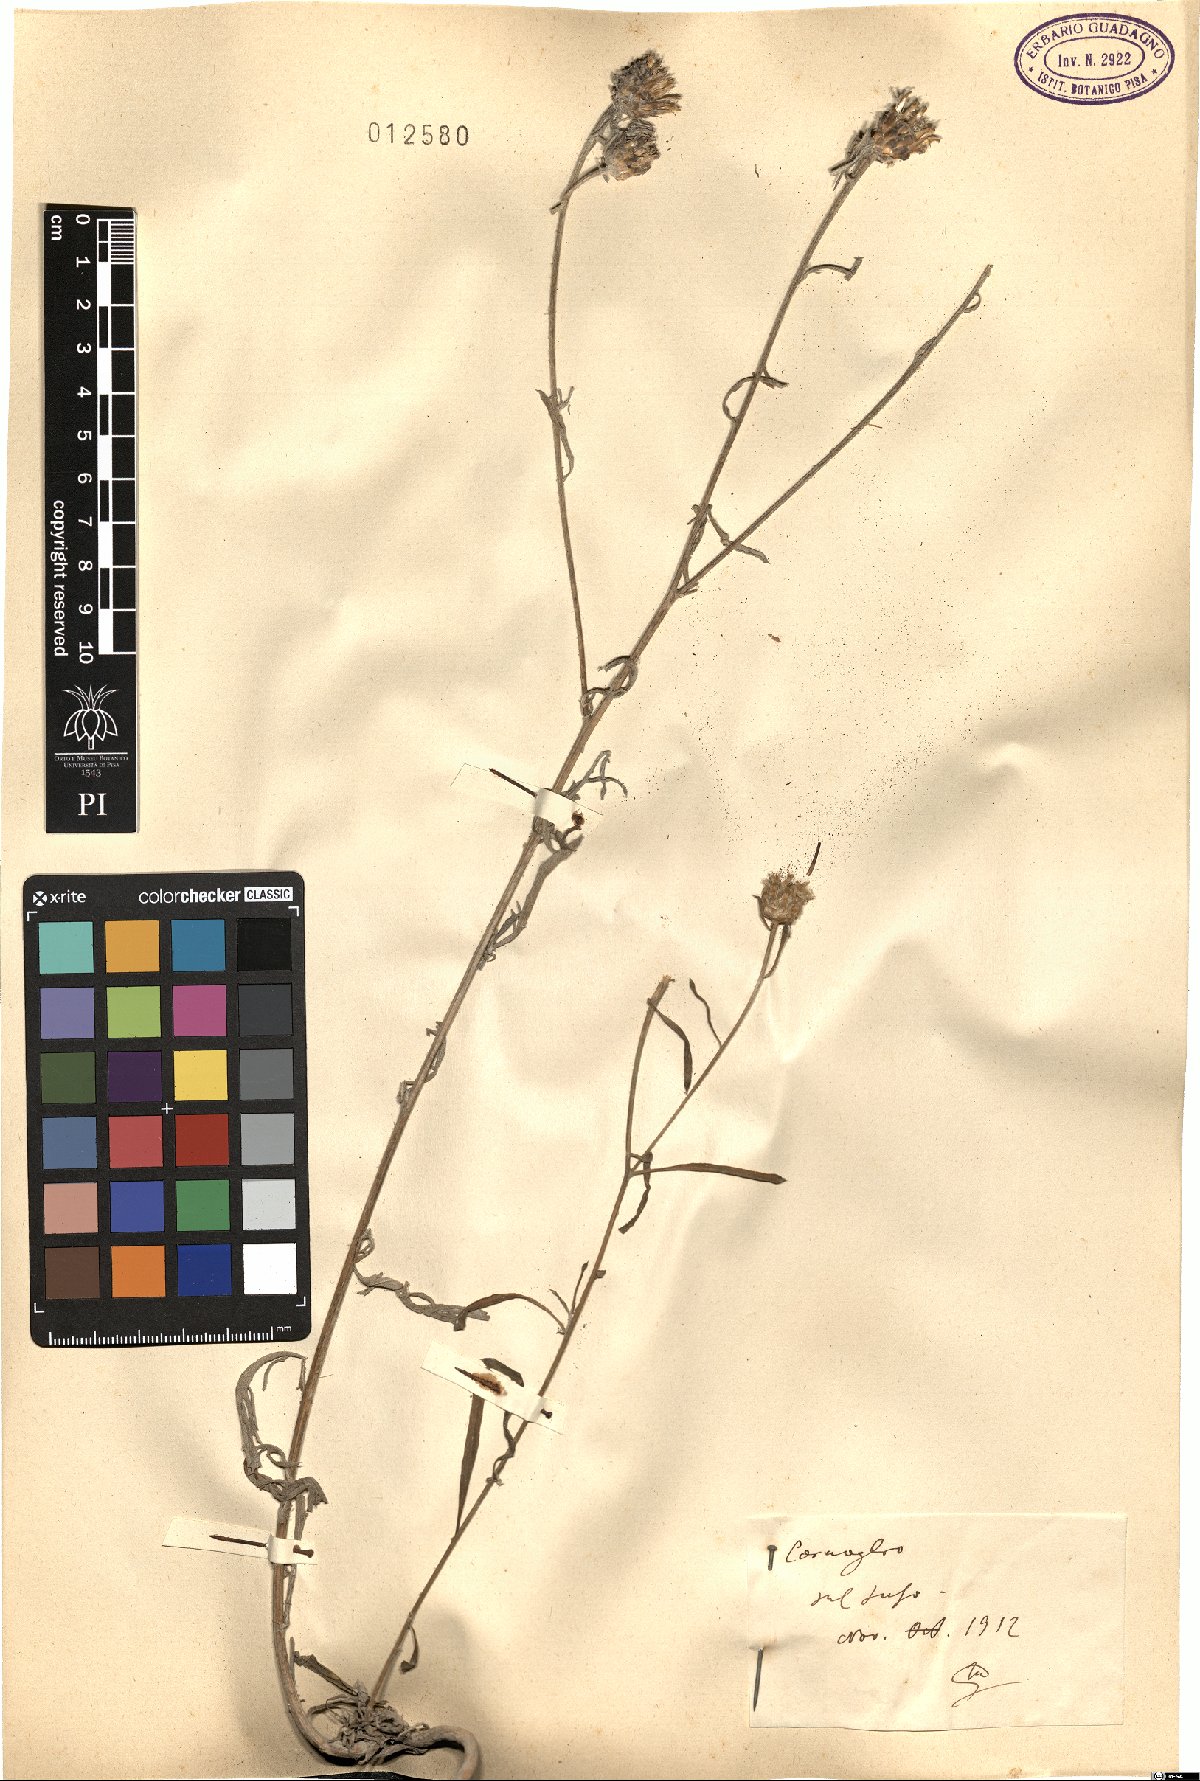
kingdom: Plantae
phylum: Tracheophyta
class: Magnoliopsida
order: Asterales
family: Asteraceae
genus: Centaurea
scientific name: Centaurea
